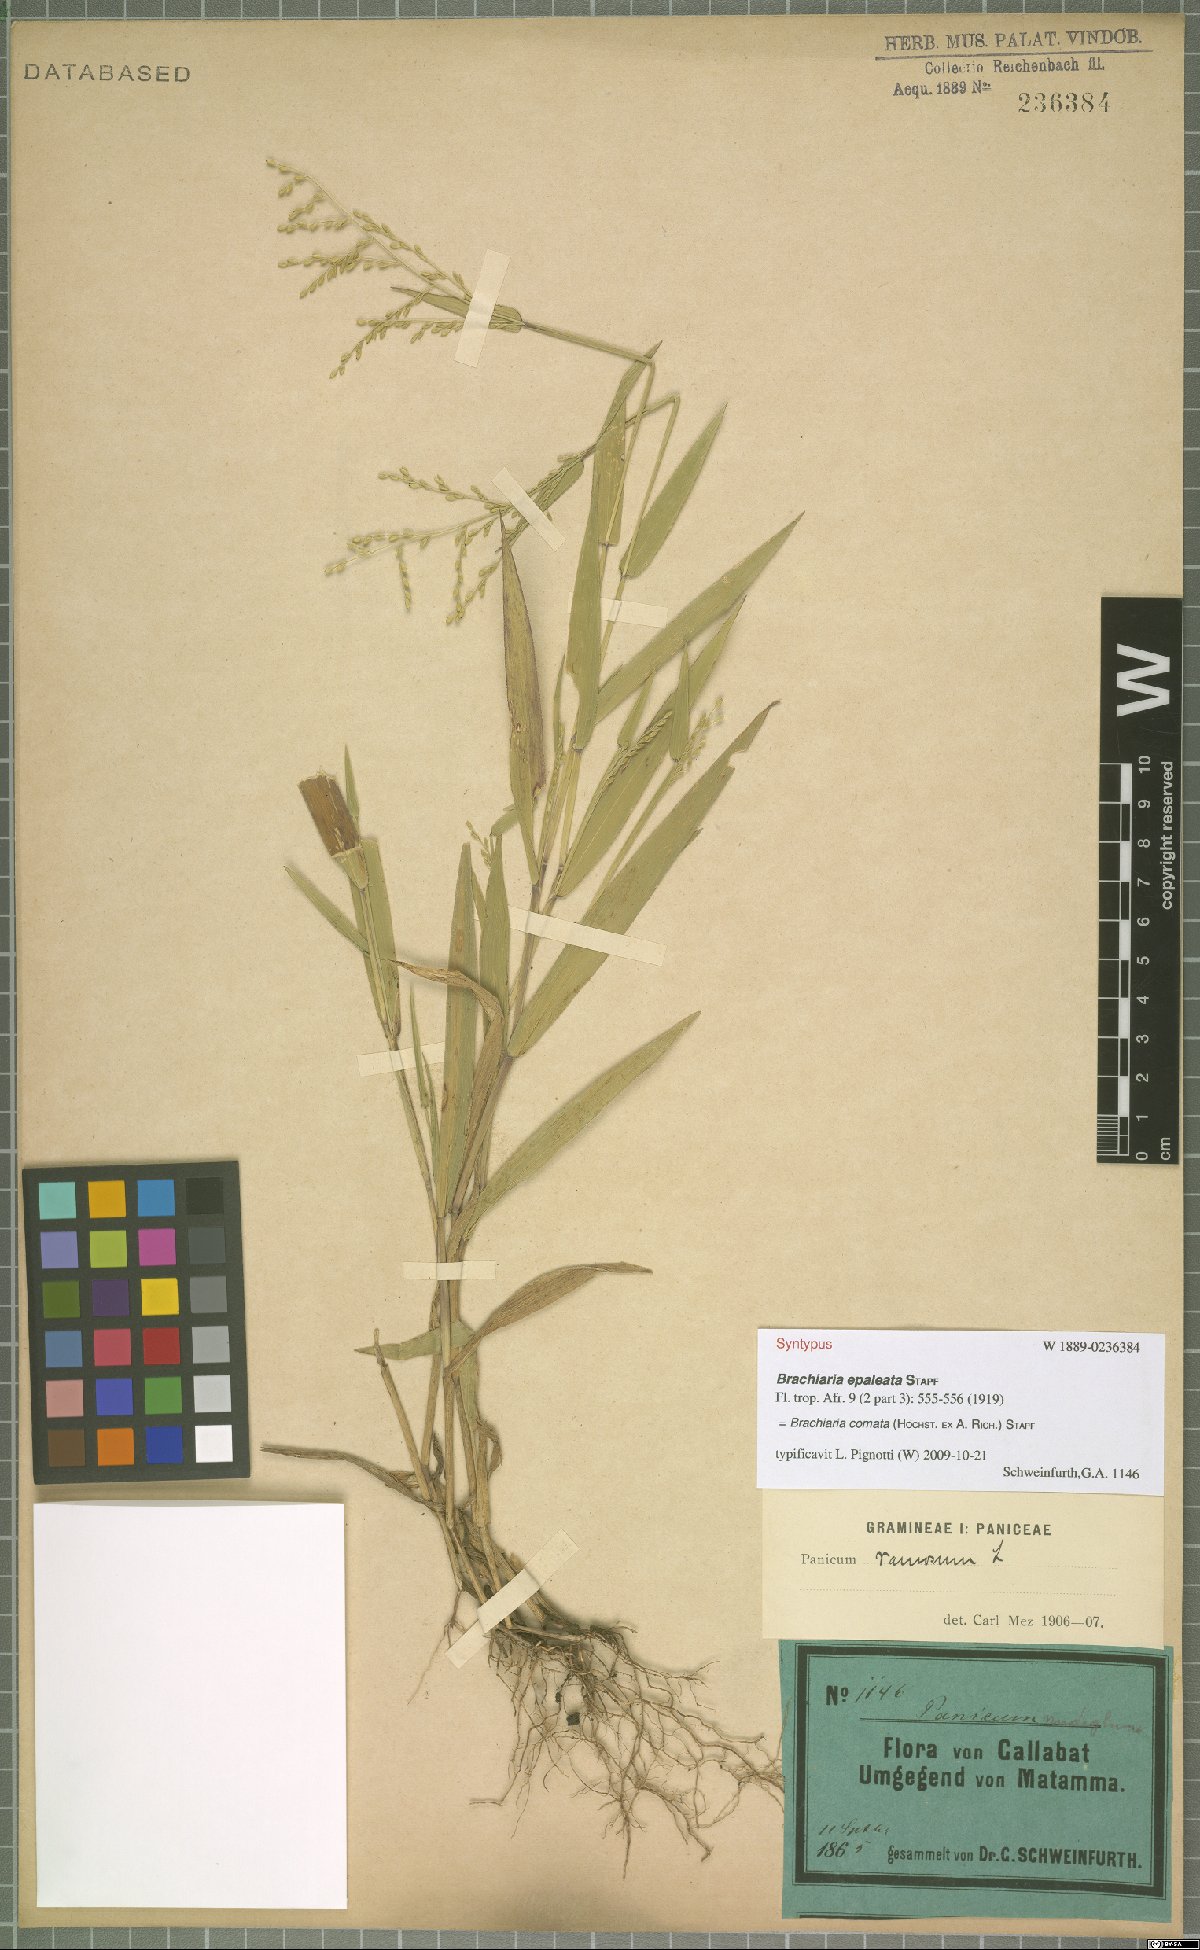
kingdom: Plantae
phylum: Tracheophyta
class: Liliopsida
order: Poales
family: Poaceae
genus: Urochloa
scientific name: Urochloa comata
